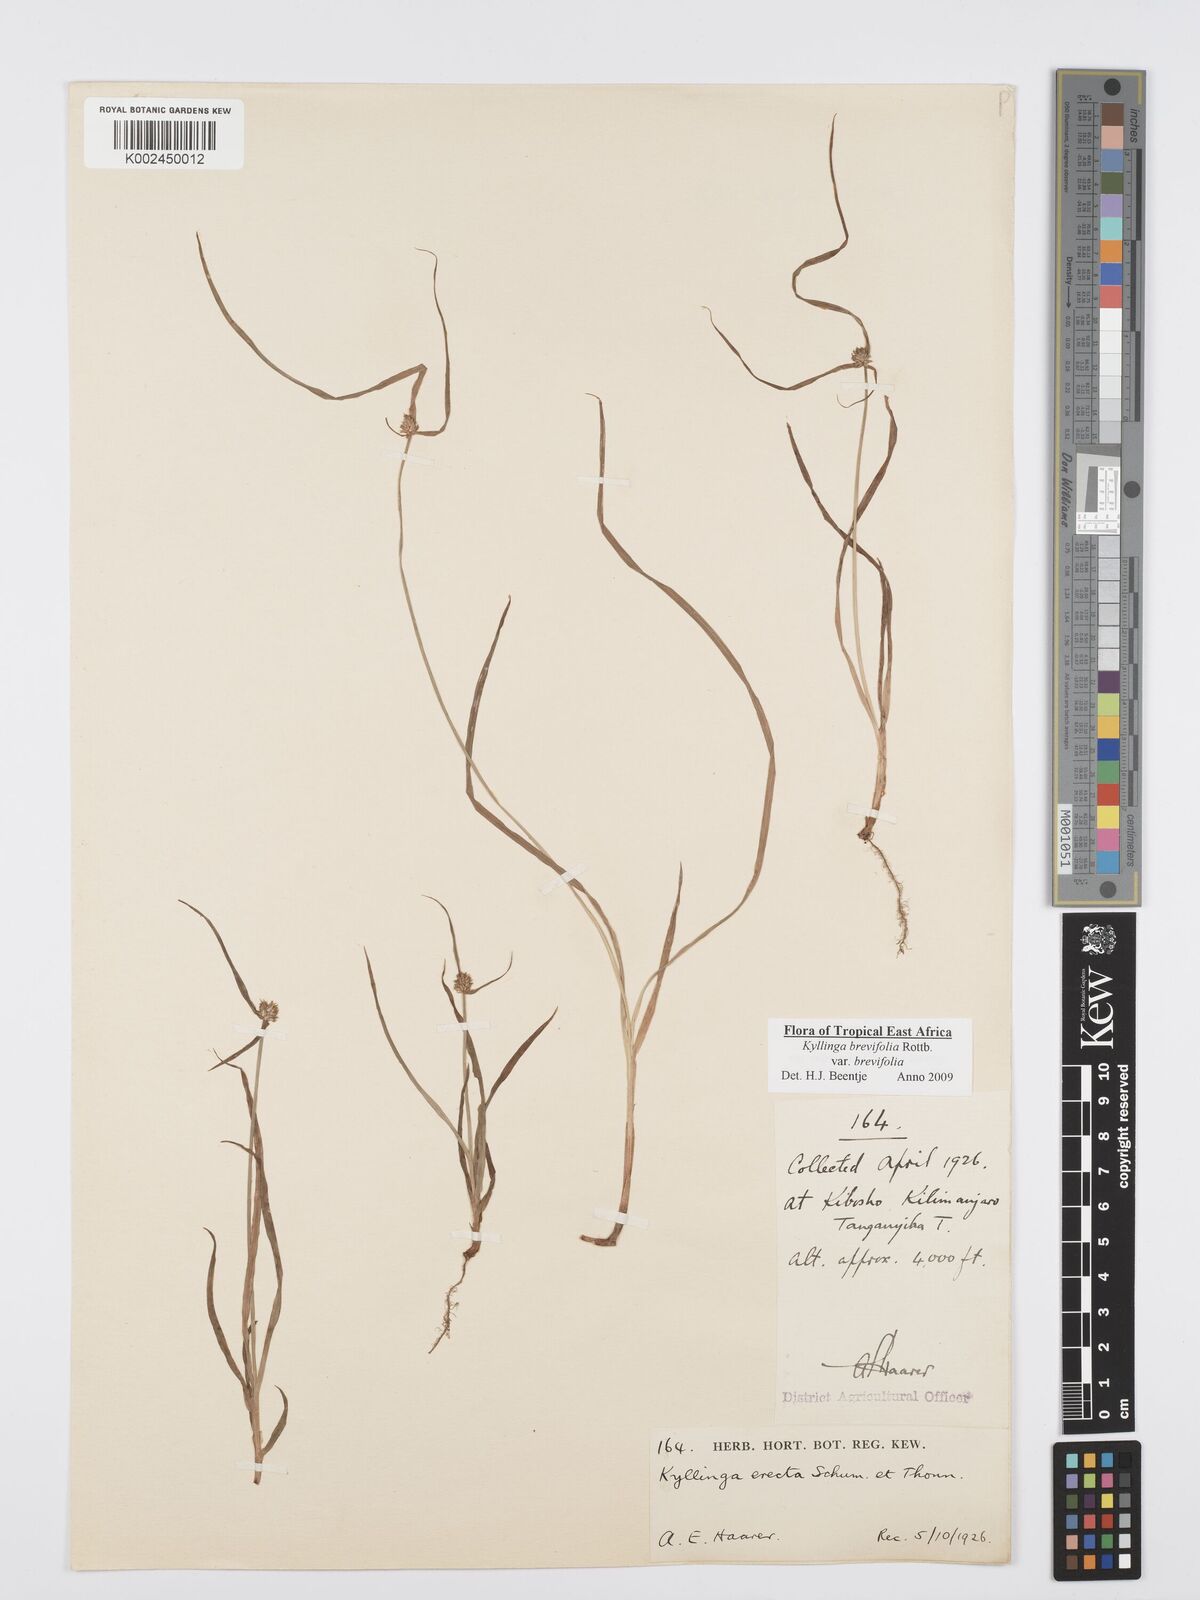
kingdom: Plantae
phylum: Tracheophyta
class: Liliopsida
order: Poales
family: Cyperaceae
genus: Cyperus
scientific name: Cyperus brevifolius
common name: Globe kyllinga
